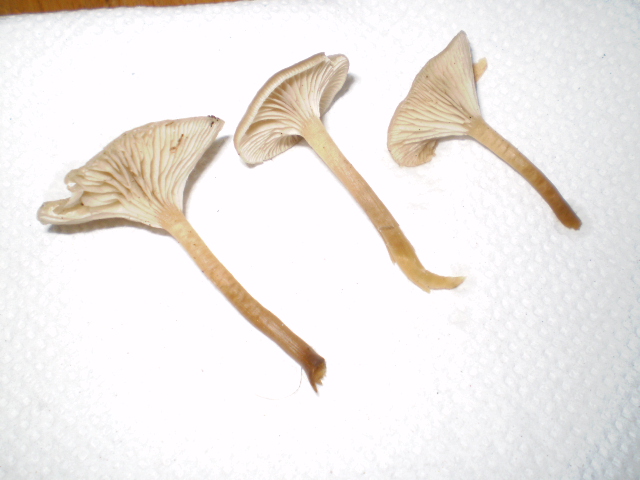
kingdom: Fungi
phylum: Basidiomycota
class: Agaricomycetes
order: Agaricales
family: Tricholomataceae
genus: Clitocybe
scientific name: Clitocybe metachroa
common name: grå tragthat
